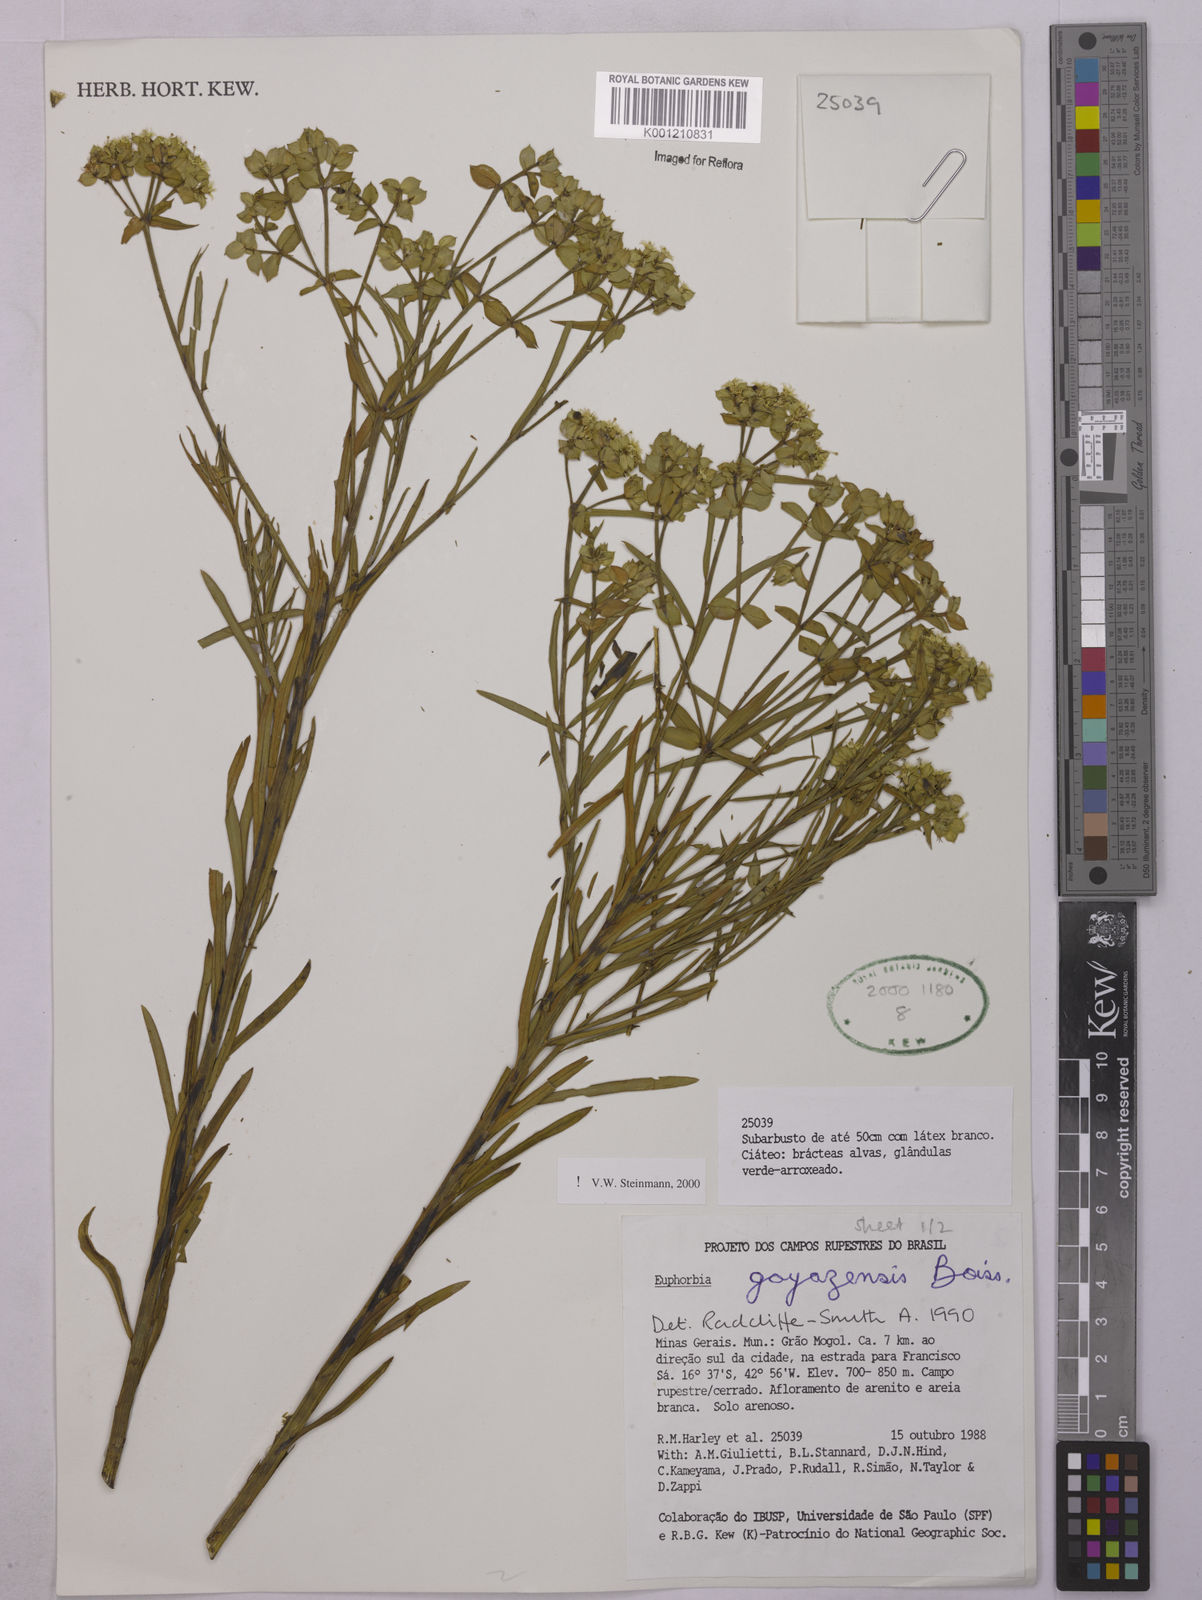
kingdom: Plantae
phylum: Tracheophyta
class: Magnoliopsida
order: Malpighiales
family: Euphorbiaceae
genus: Euphorbia
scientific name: Euphorbia goyazensis
